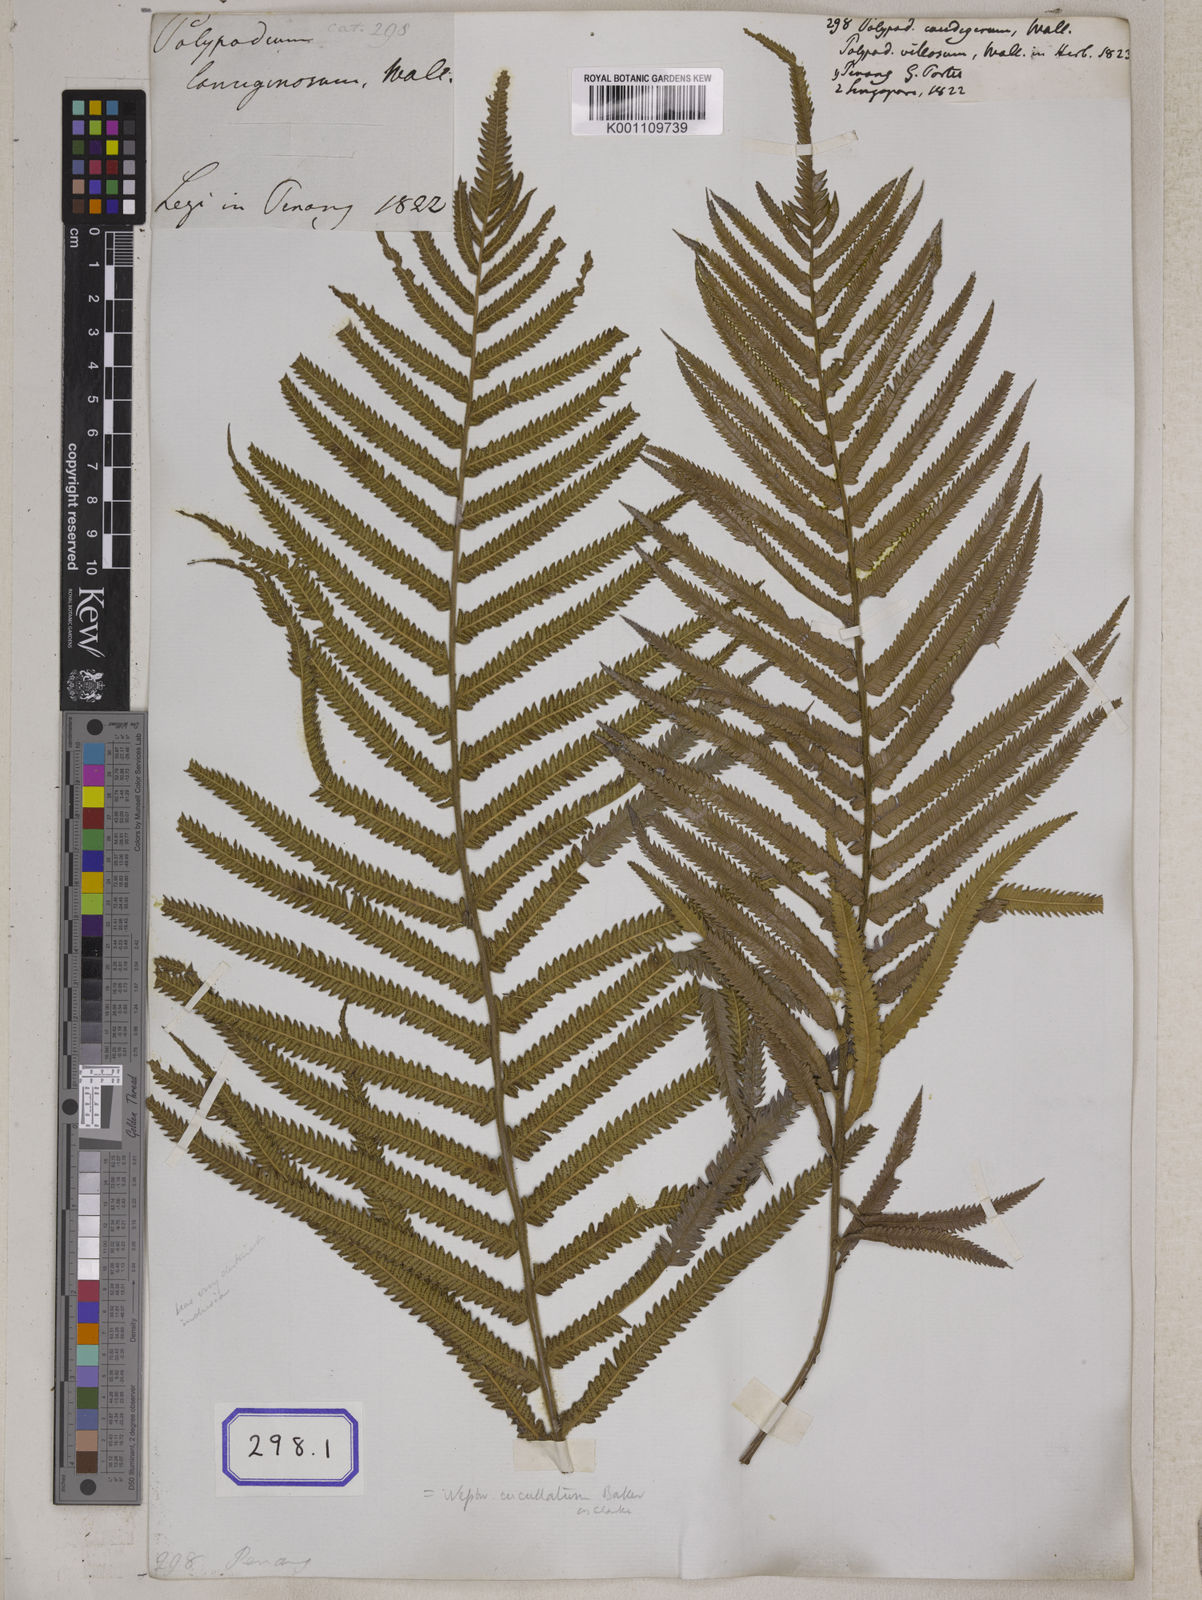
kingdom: Plantae
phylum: Tracheophyta
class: Polypodiopsida
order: Polypodiales
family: Thelypteridaceae
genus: Strophocaulon
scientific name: Strophocaulon unitum
